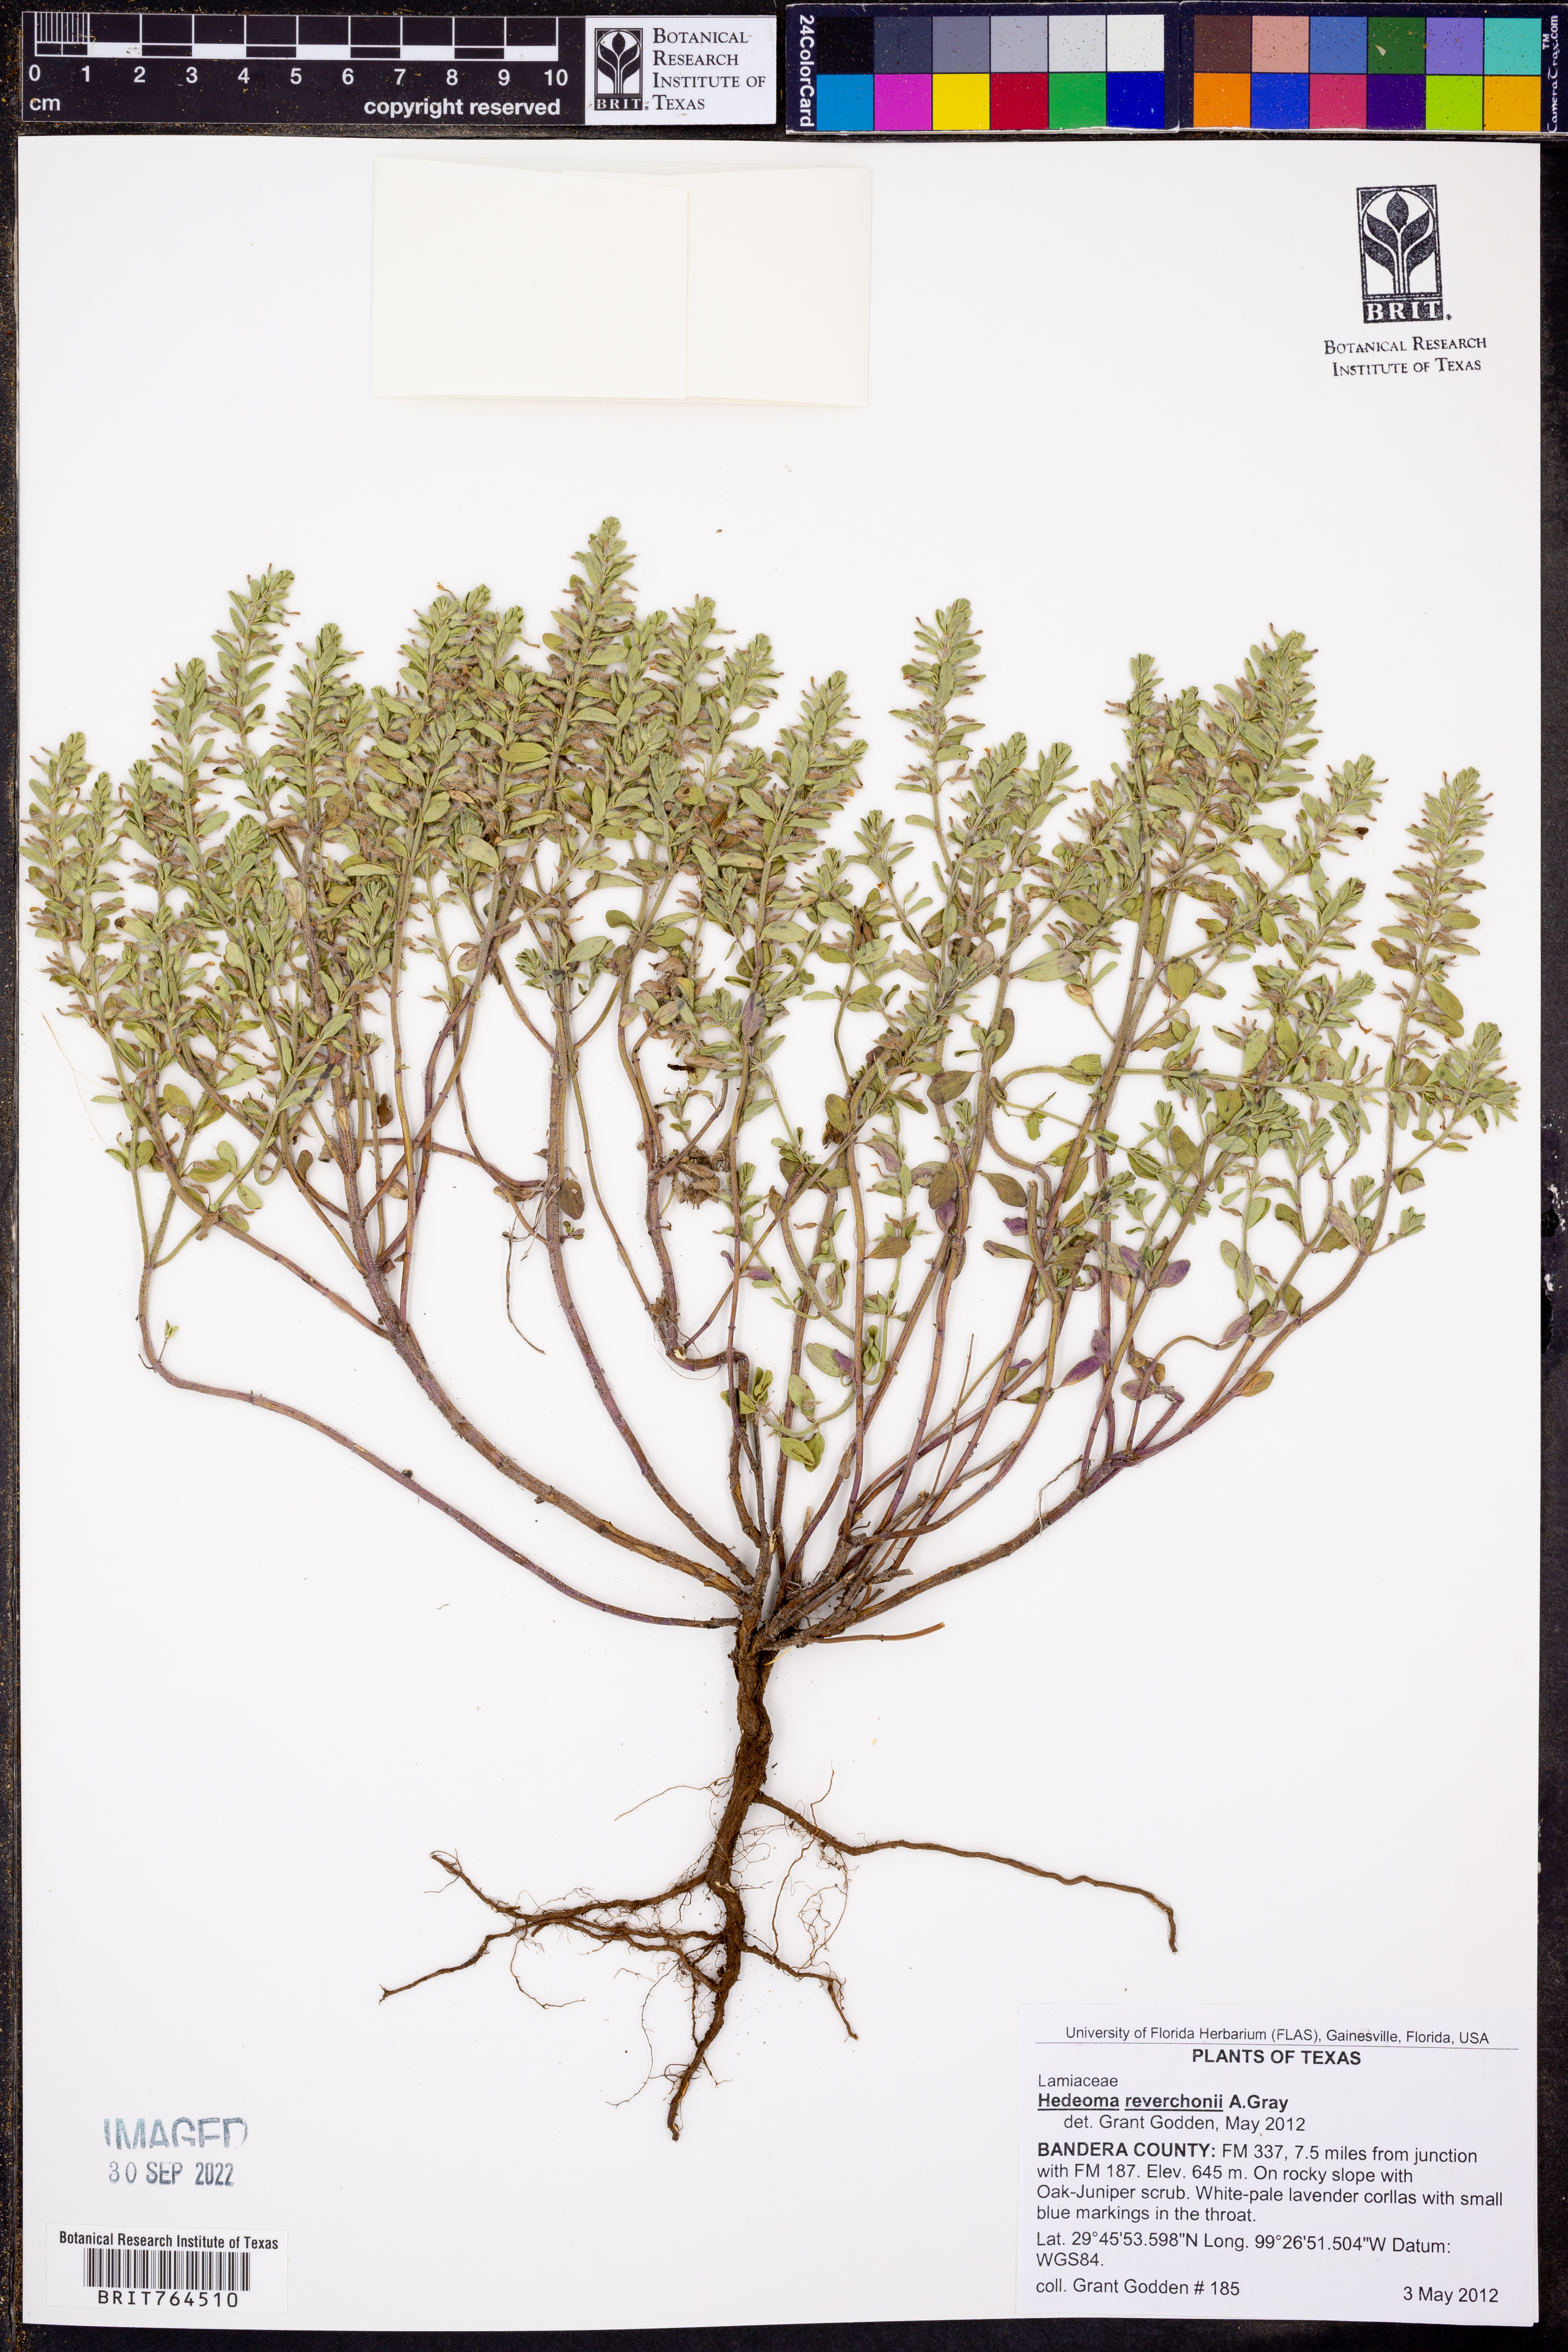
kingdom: Plantae
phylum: Tracheophyta
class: Magnoliopsida
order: Lamiales
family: Lamiaceae
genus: Hedeoma
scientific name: Hedeoma reverchonii
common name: Reverchon's false penny-royal
